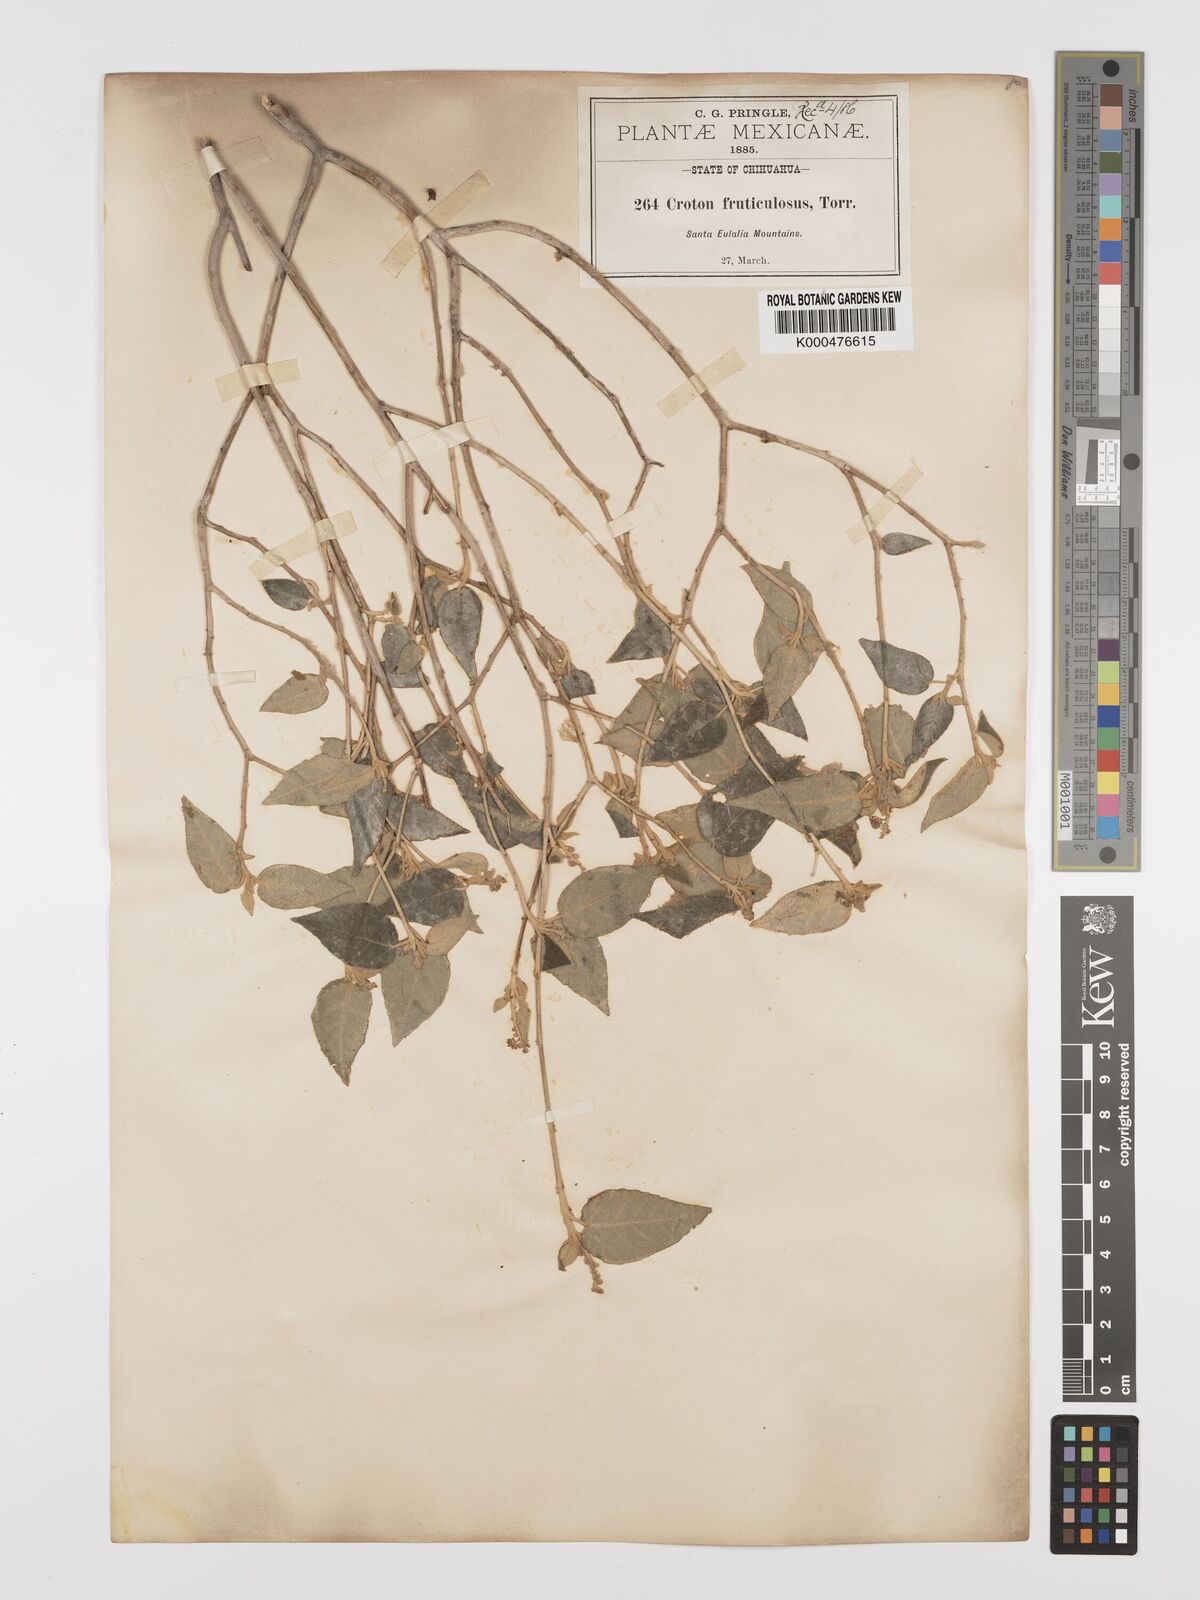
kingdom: Plantae
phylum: Tracheophyta
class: Magnoliopsida
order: Malpighiales
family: Euphorbiaceae
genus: Croton
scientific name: Croton fruticulosus
